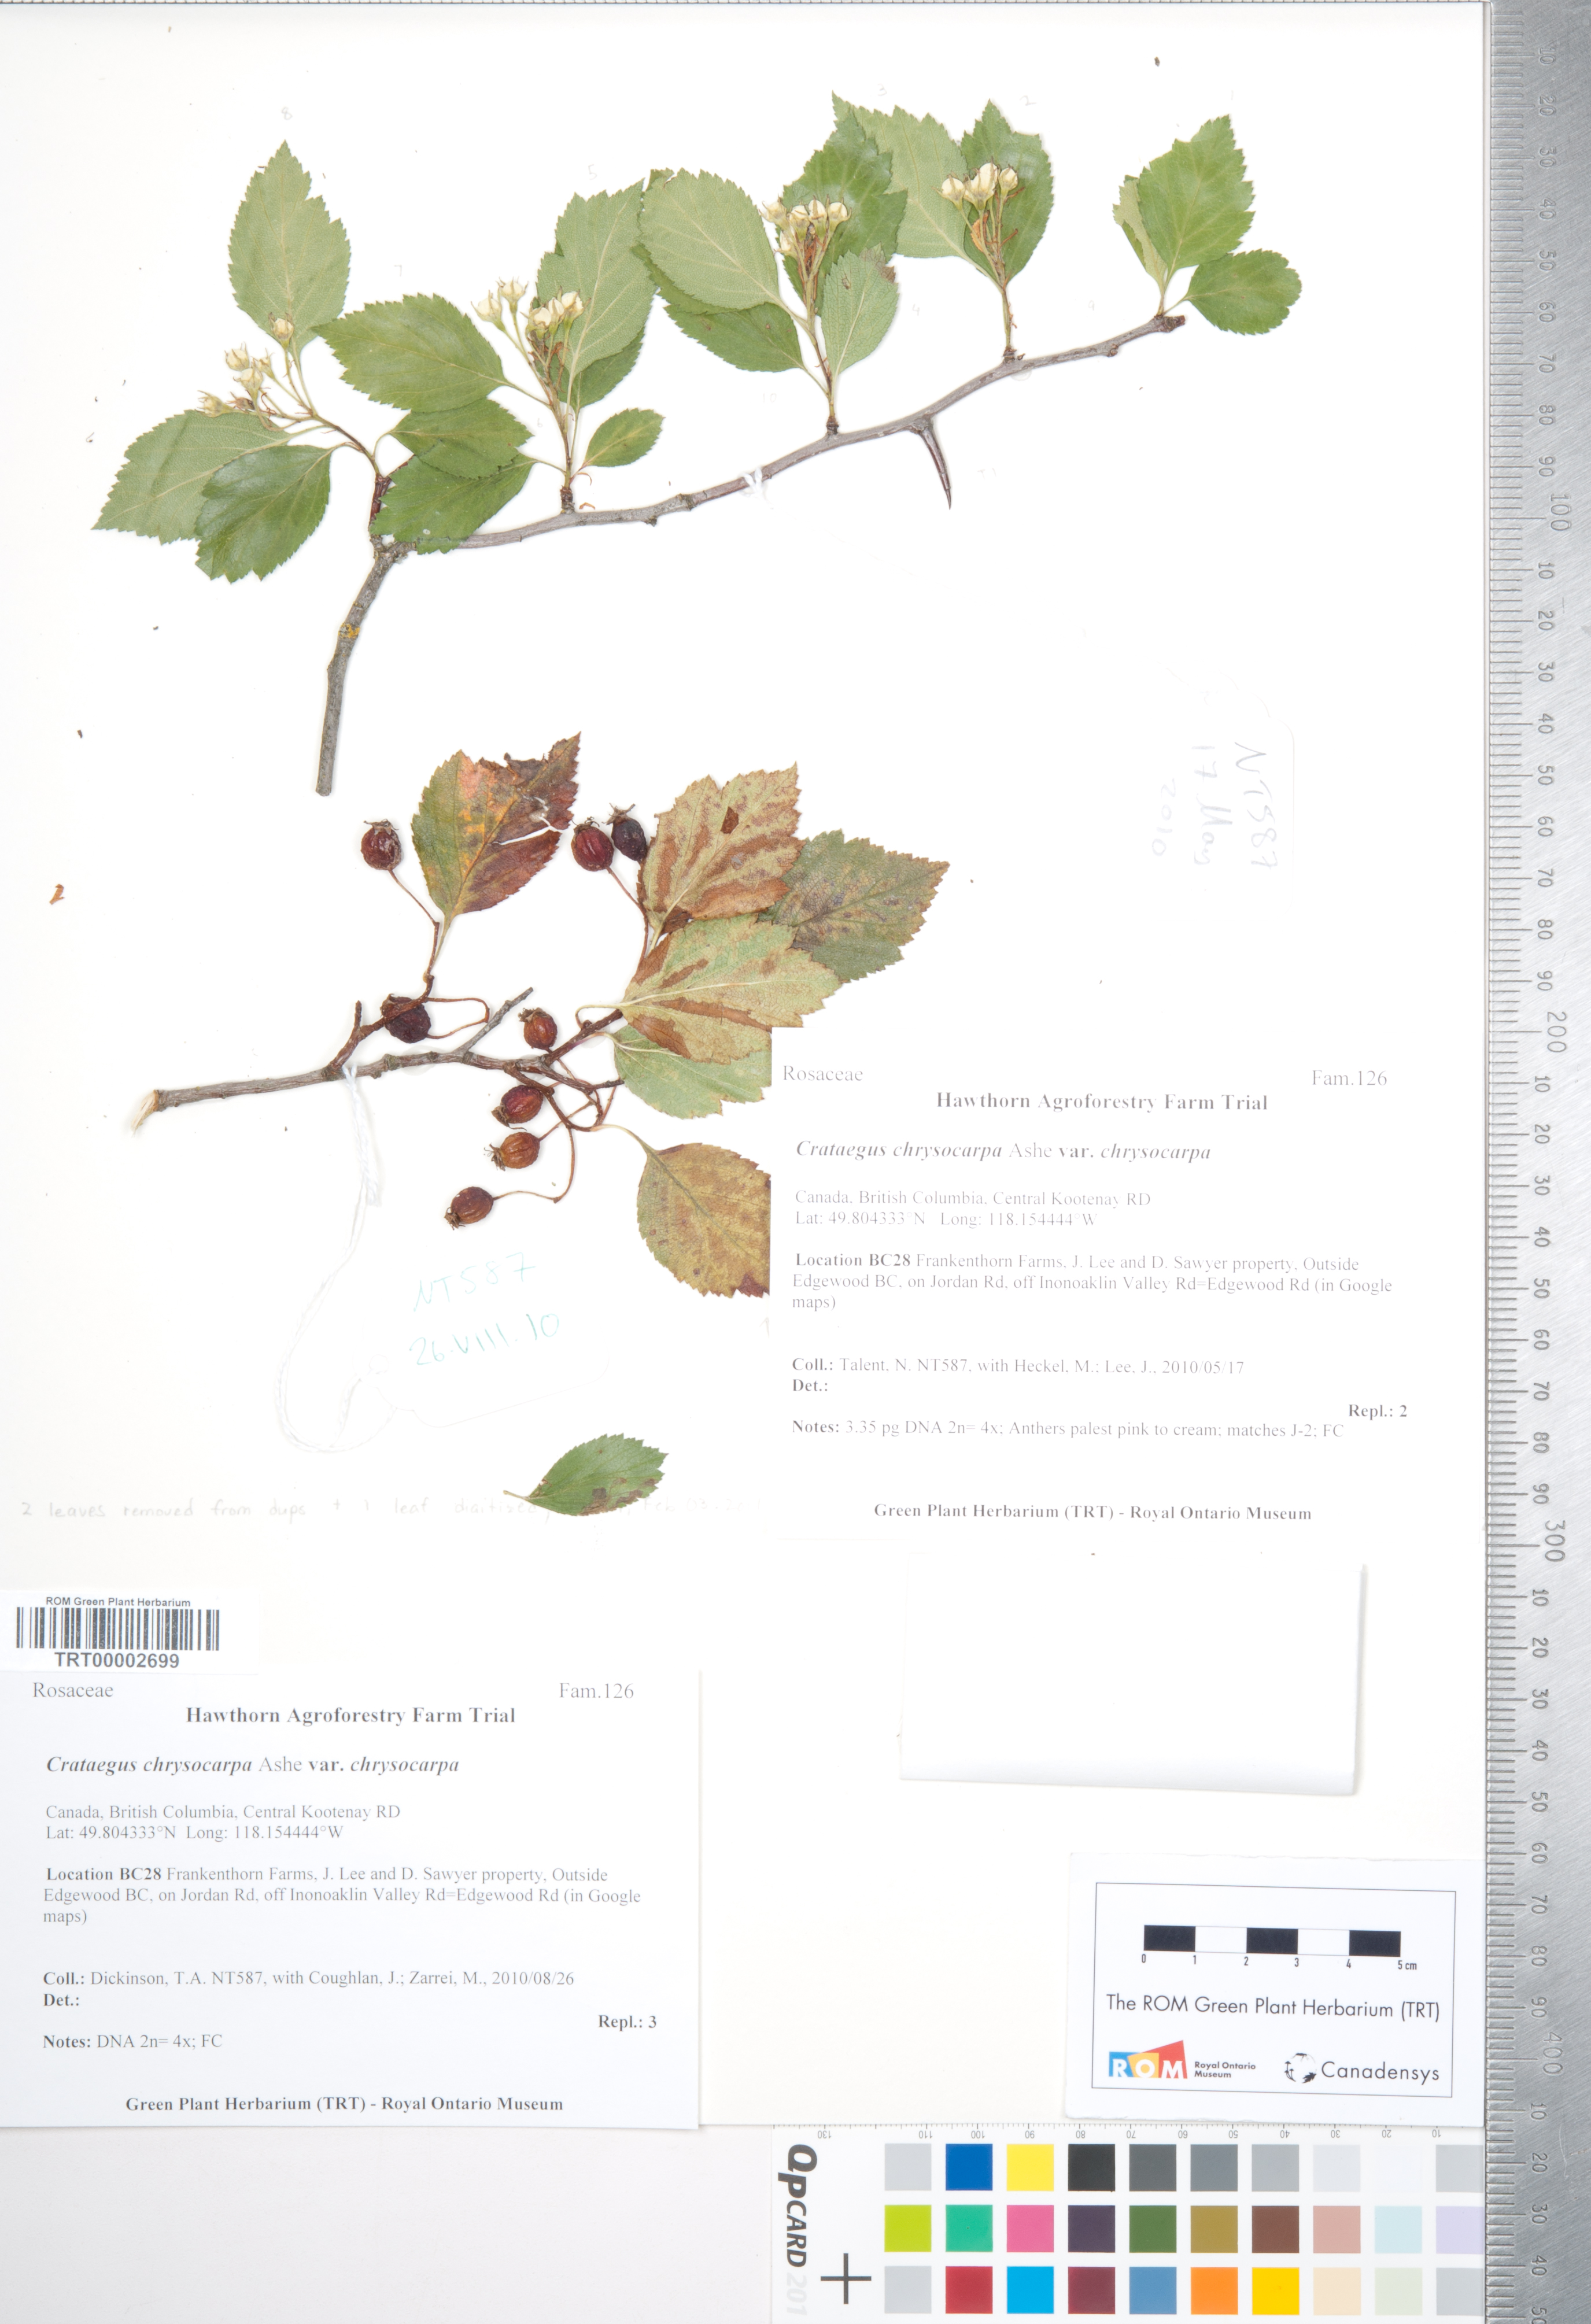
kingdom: Plantae
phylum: Tracheophyta
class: Magnoliopsida
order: Rosales
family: Rosaceae
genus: Crataegus
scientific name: Crataegus chrysocarpa
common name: Fire-berry hawthorn
